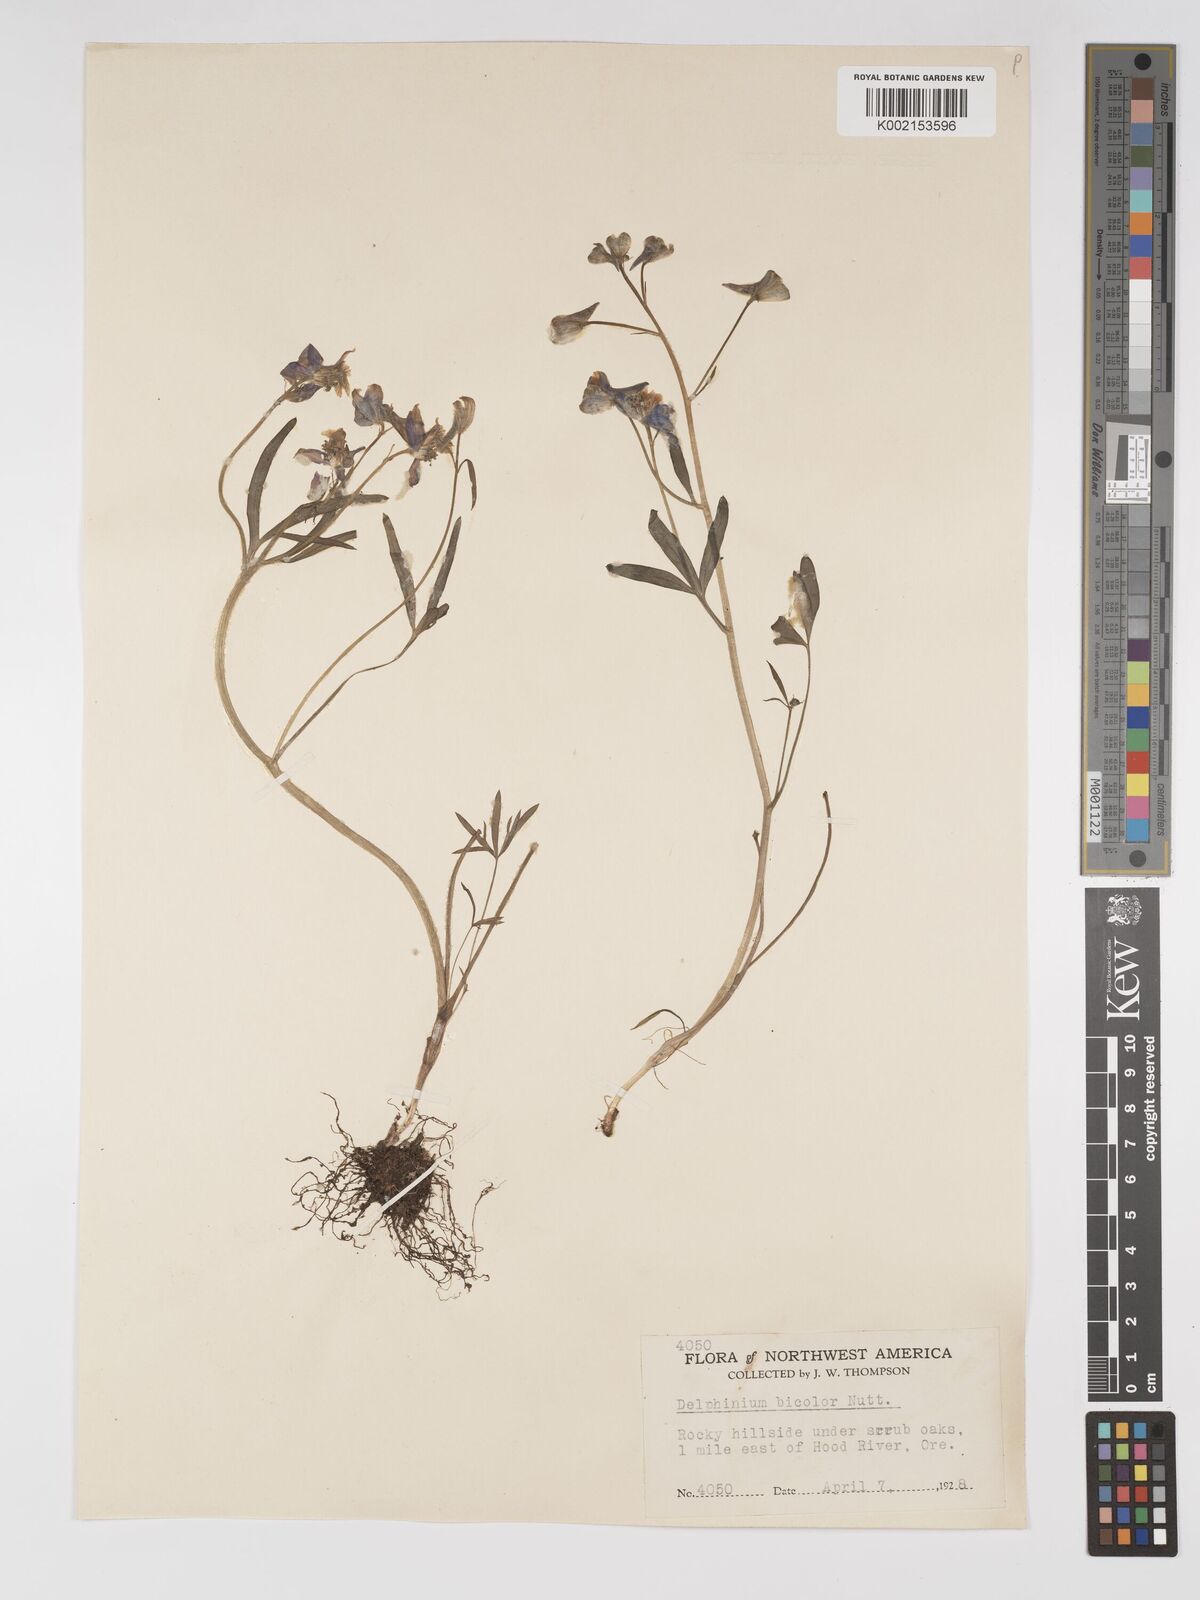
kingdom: Plantae
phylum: Tracheophyta
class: Magnoliopsida
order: Ranunculales
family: Ranunculaceae
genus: Delphinium
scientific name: Delphinium bicolor
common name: Low larkspur
